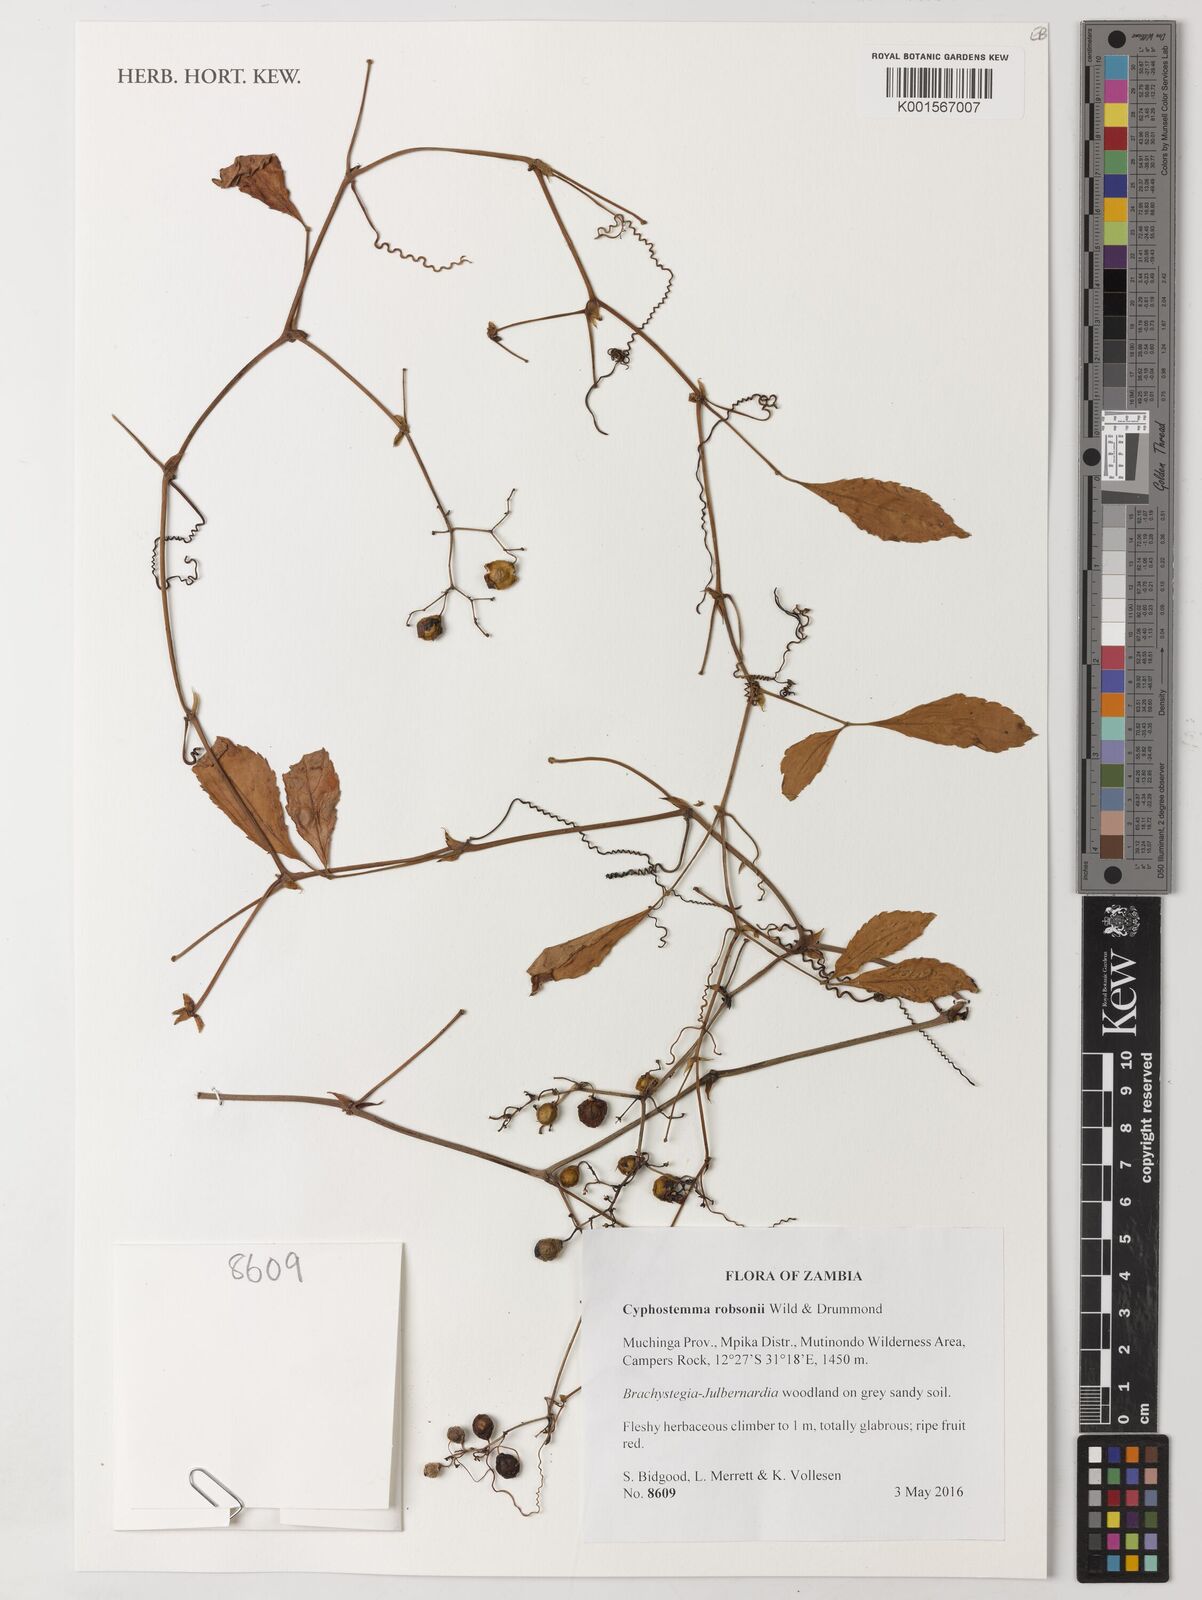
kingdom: Plantae
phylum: Tracheophyta
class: Magnoliopsida
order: Vitales
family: Vitaceae
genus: Cyphostemma
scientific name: Cyphostemma robsonii
